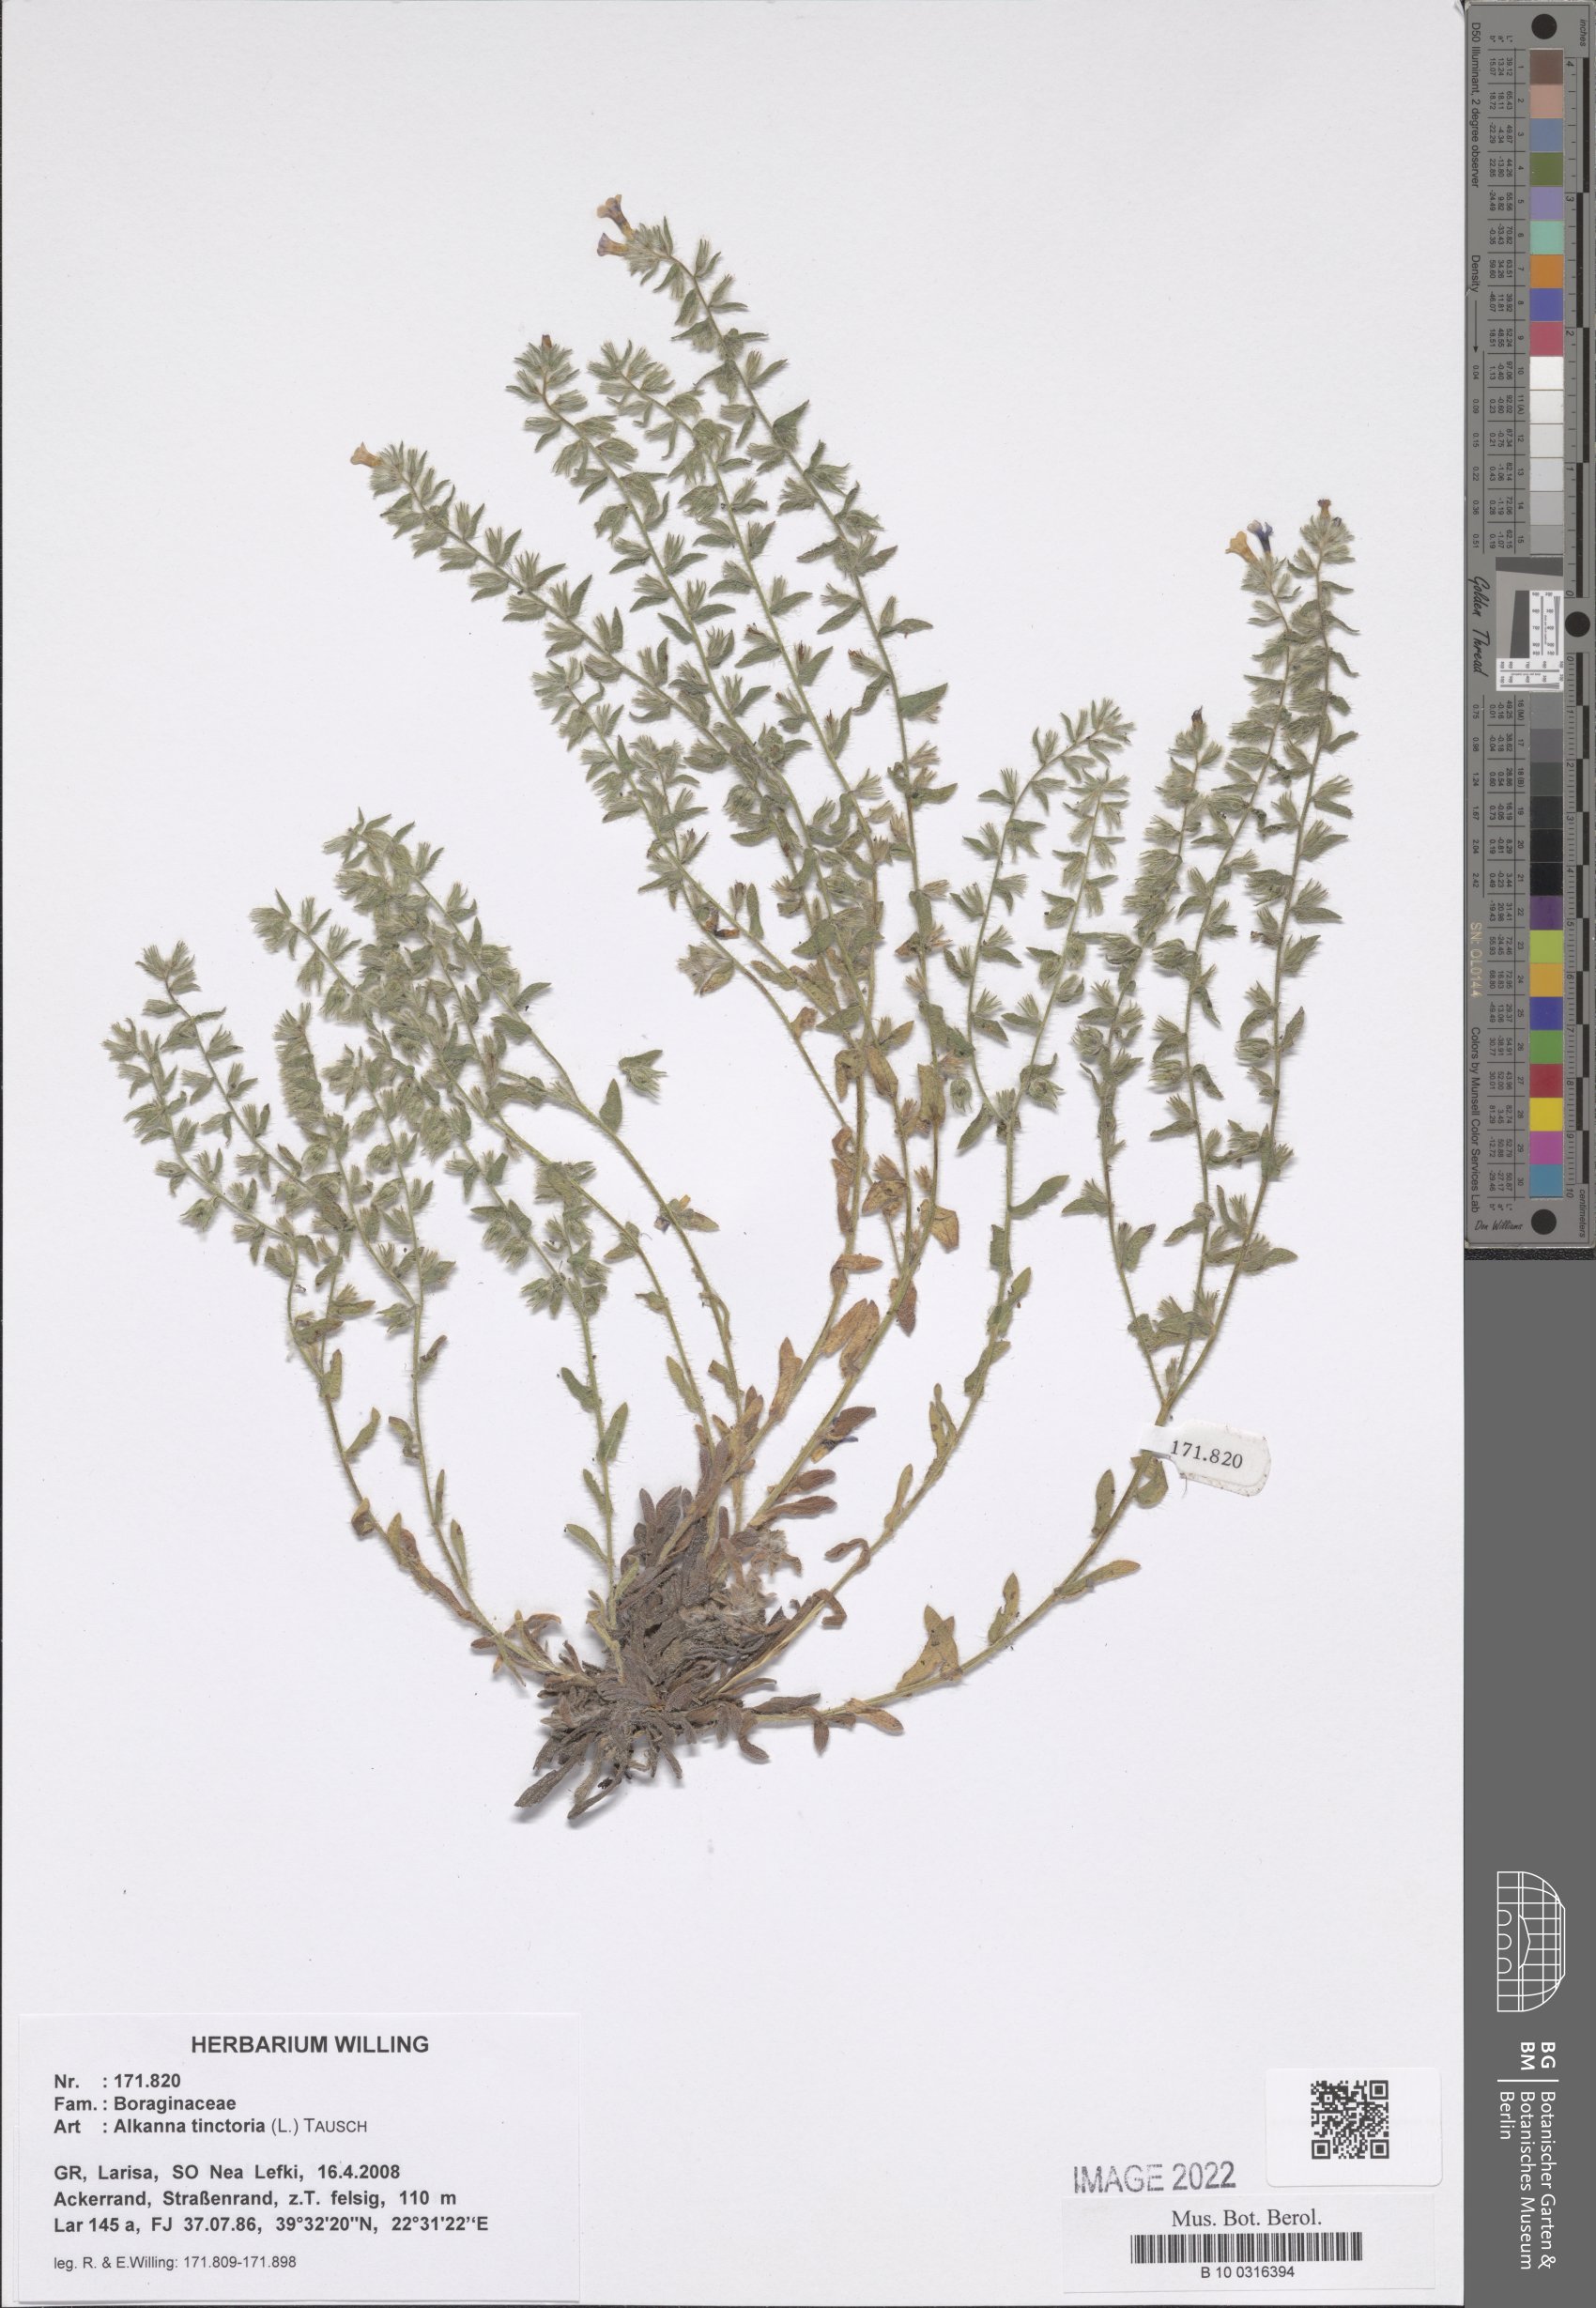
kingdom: Plantae
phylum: Tracheophyta
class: Magnoliopsida
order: Boraginales
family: Boraginaceae
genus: Alkanna
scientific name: Alkanna tinctoria
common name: Dyer's-alkanet
